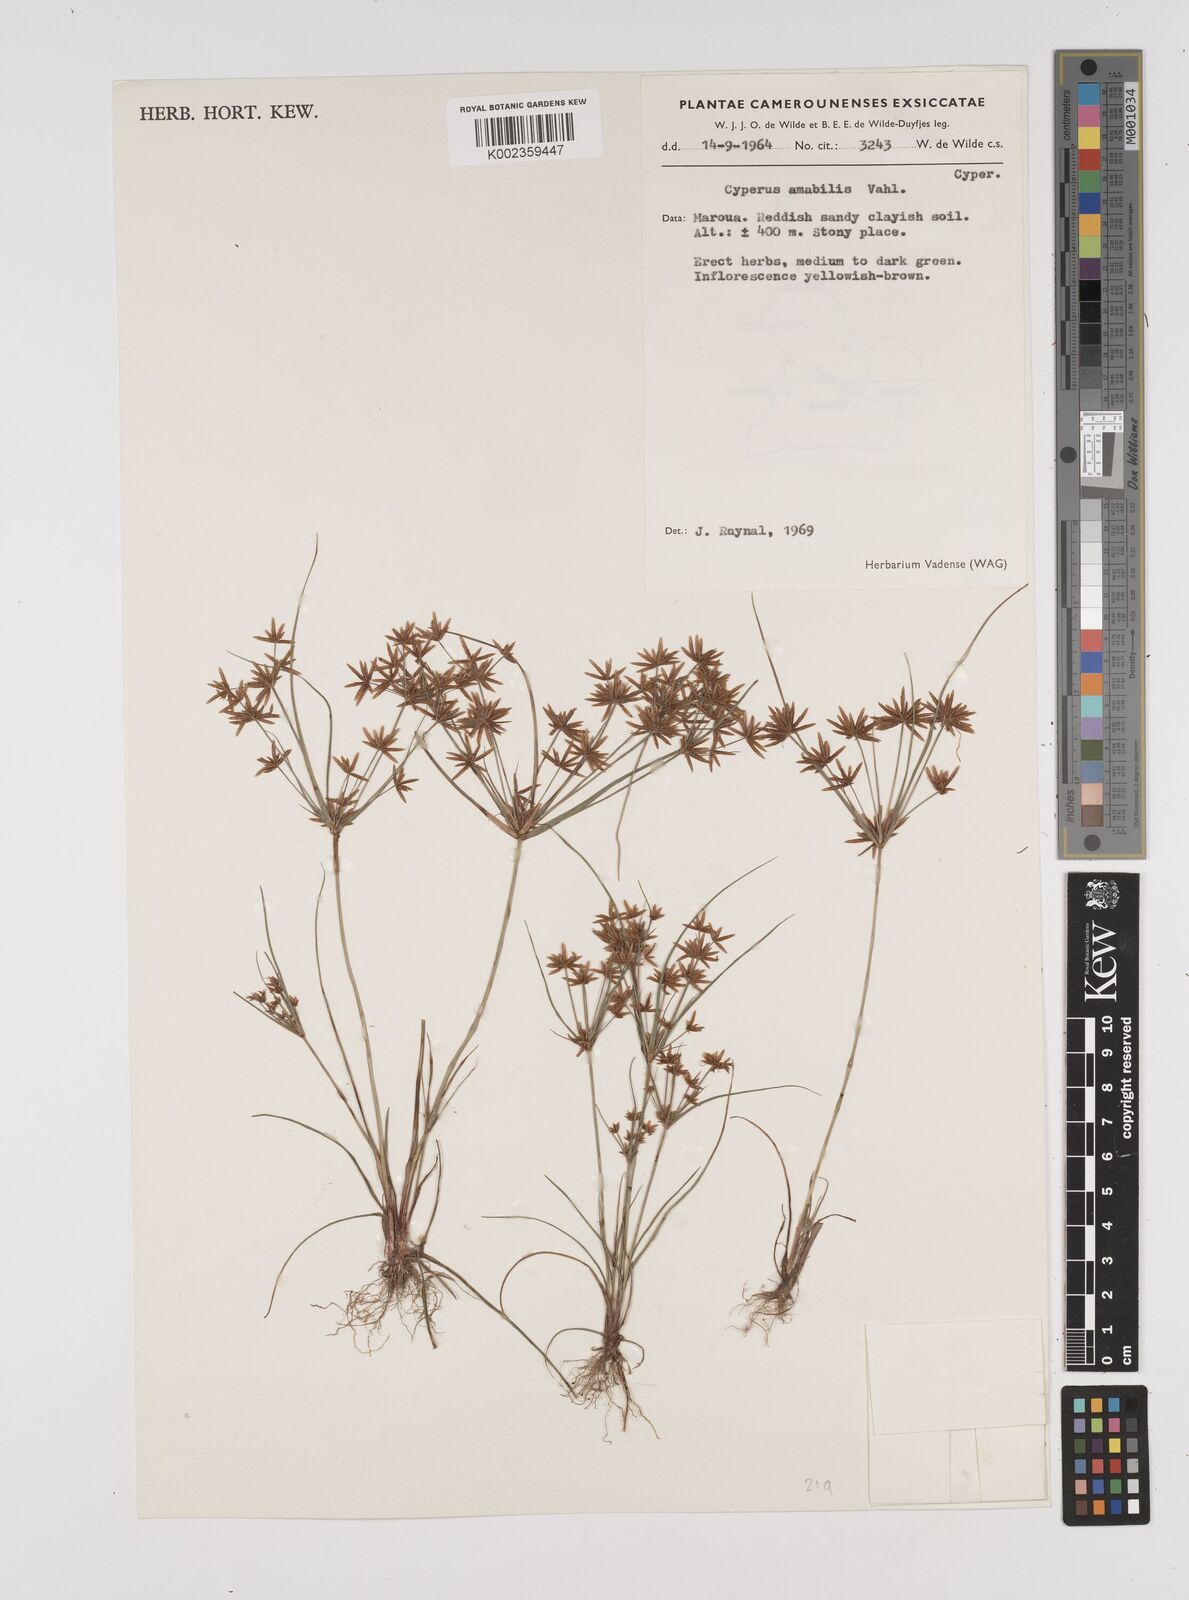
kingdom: Plantae
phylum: Tracheophyta
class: Liliopsida
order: Poales
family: Cyperaceae
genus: Cyperus
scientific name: Cyperus amabilis
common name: Foothill flat sedge
